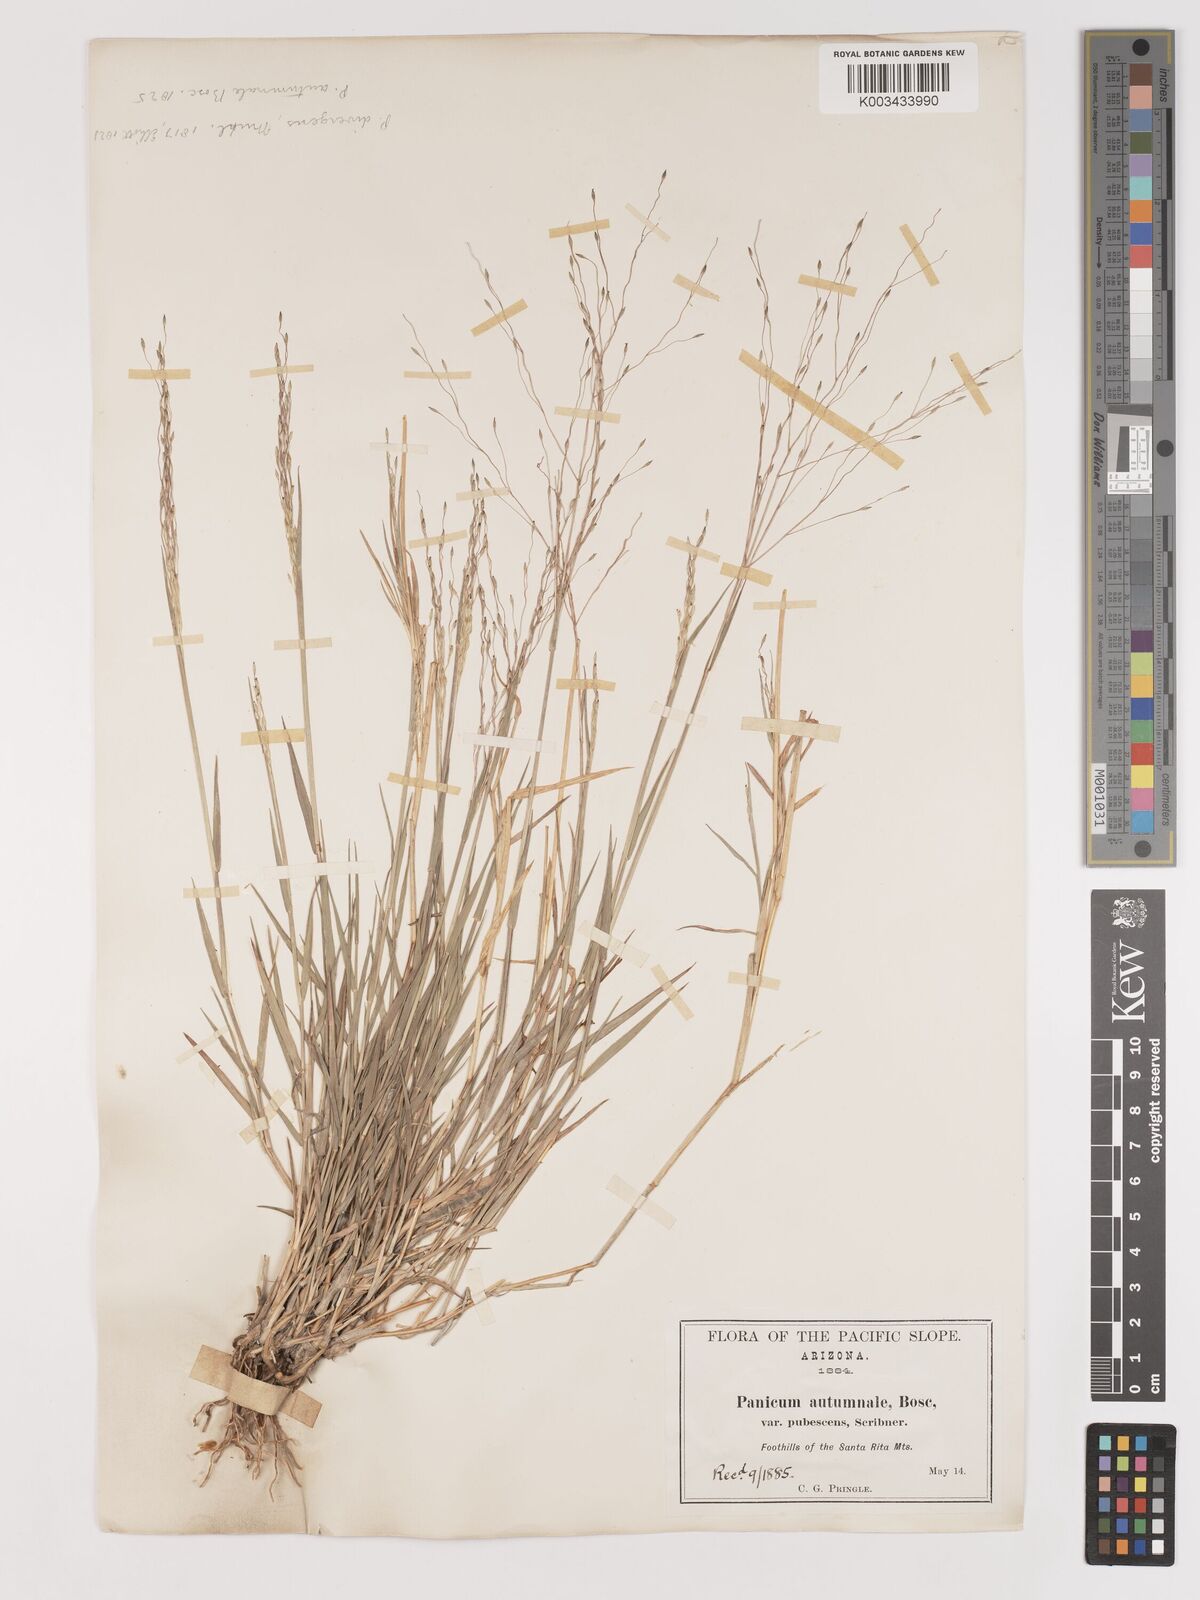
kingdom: Plantae
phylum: Tracheophyta
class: Liliopsida
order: Poales
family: Poaceae
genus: Digitaria
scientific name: Digitaria
